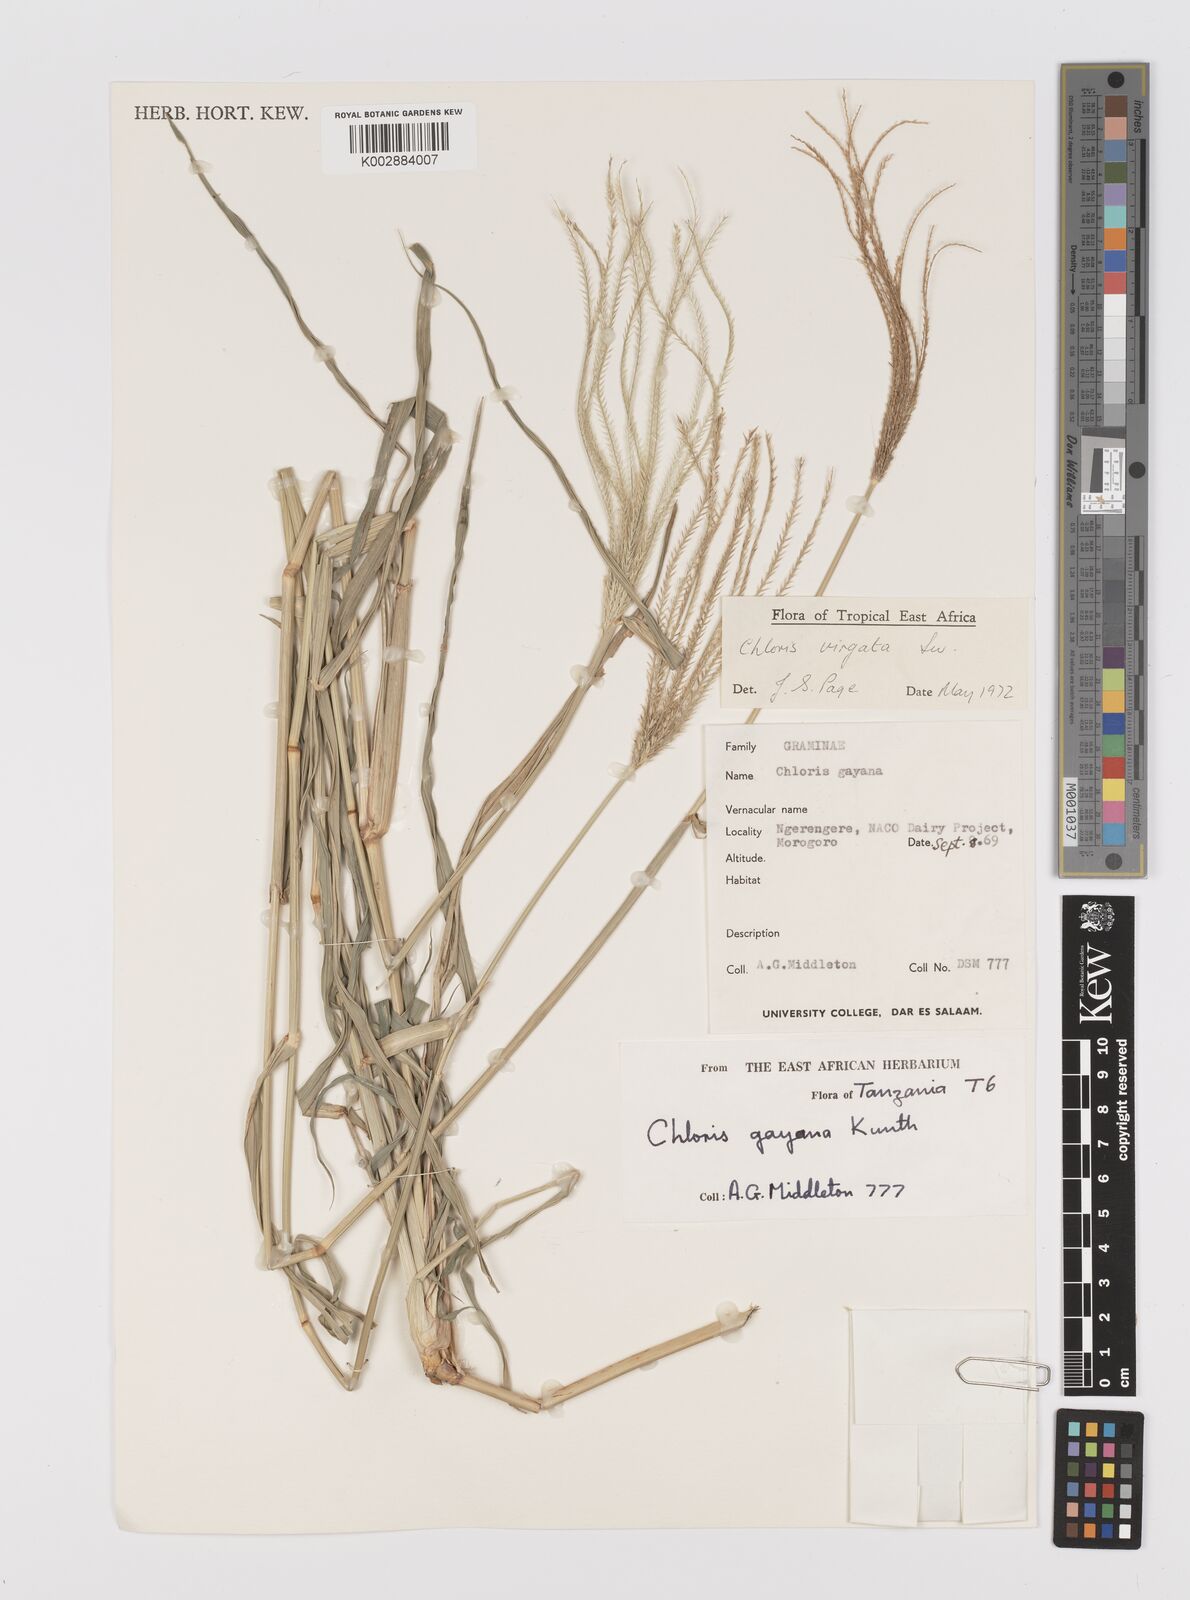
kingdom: Plantae
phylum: Tracheophyta
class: Liliopsida
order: Poales
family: Poaceae
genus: Chloris
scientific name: Chloris virgata
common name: Feathery rhodes-grass
